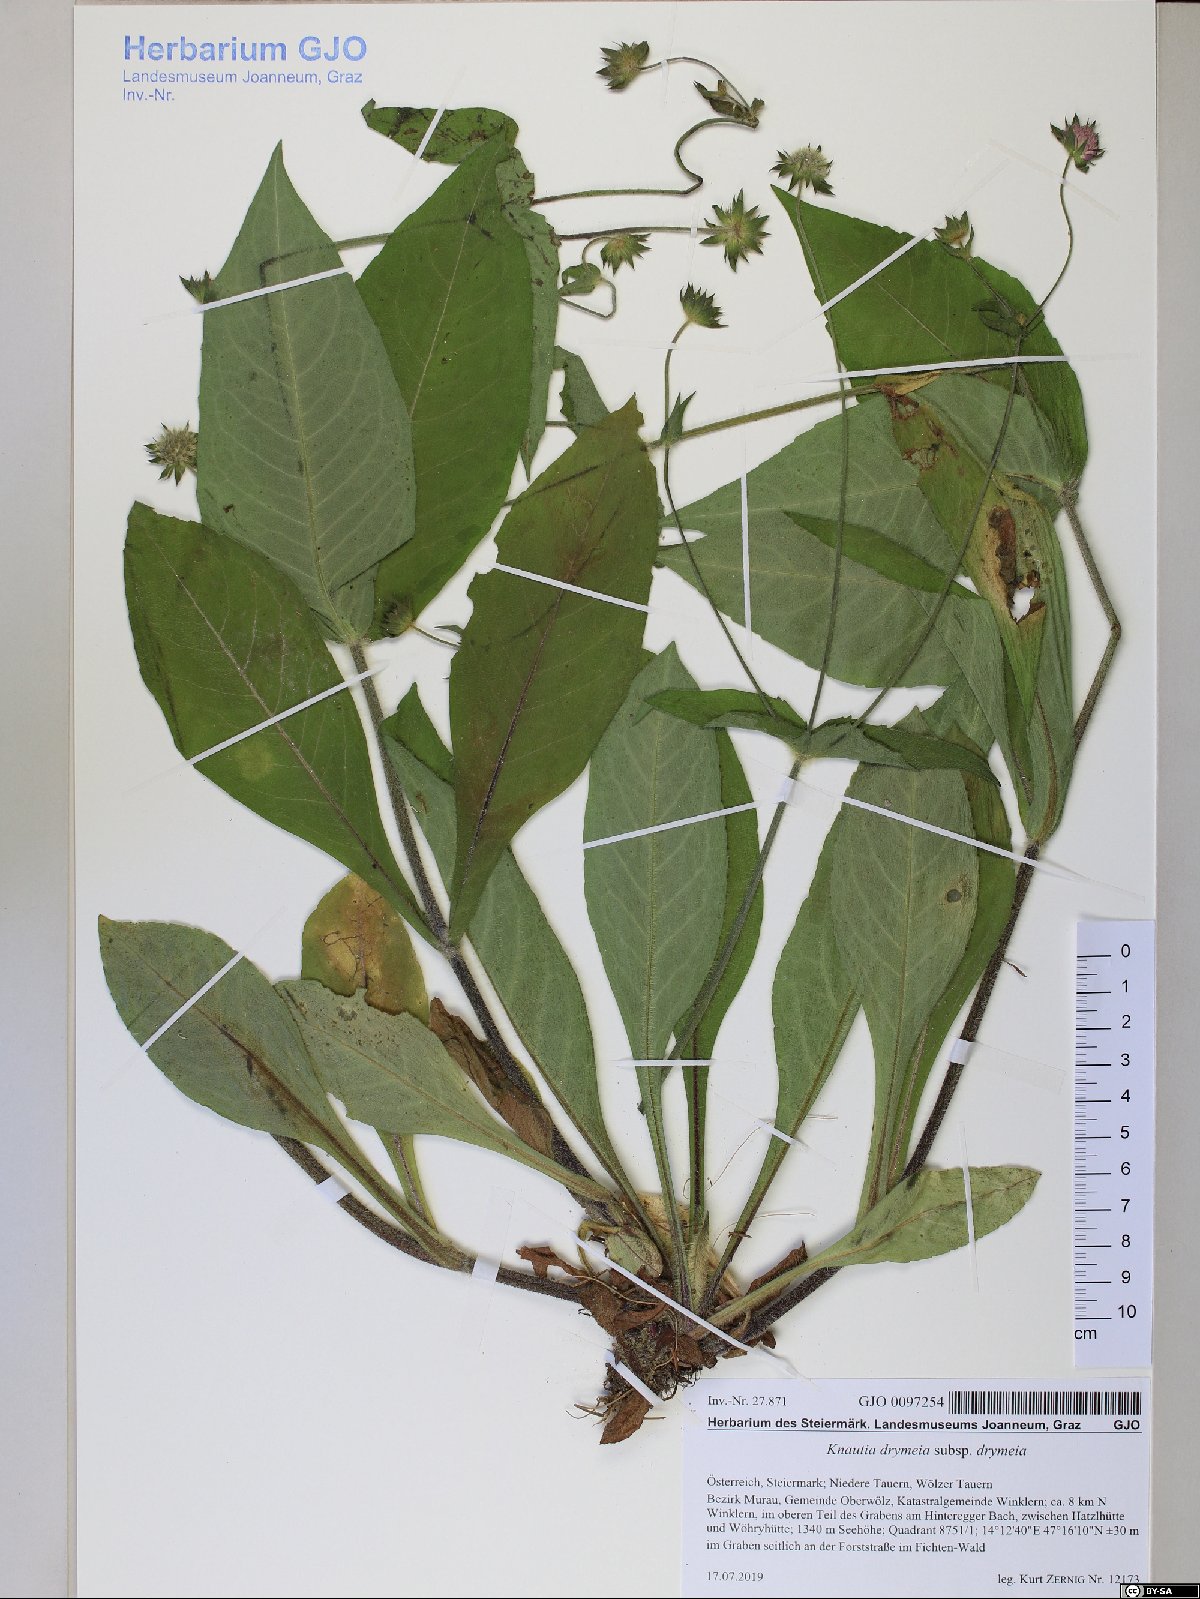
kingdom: Plantae
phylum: Tracheophyta
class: Magnoliopsida
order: Dipsacales
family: Caprifoliaceae
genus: Knautia
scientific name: Knautia drymeia
